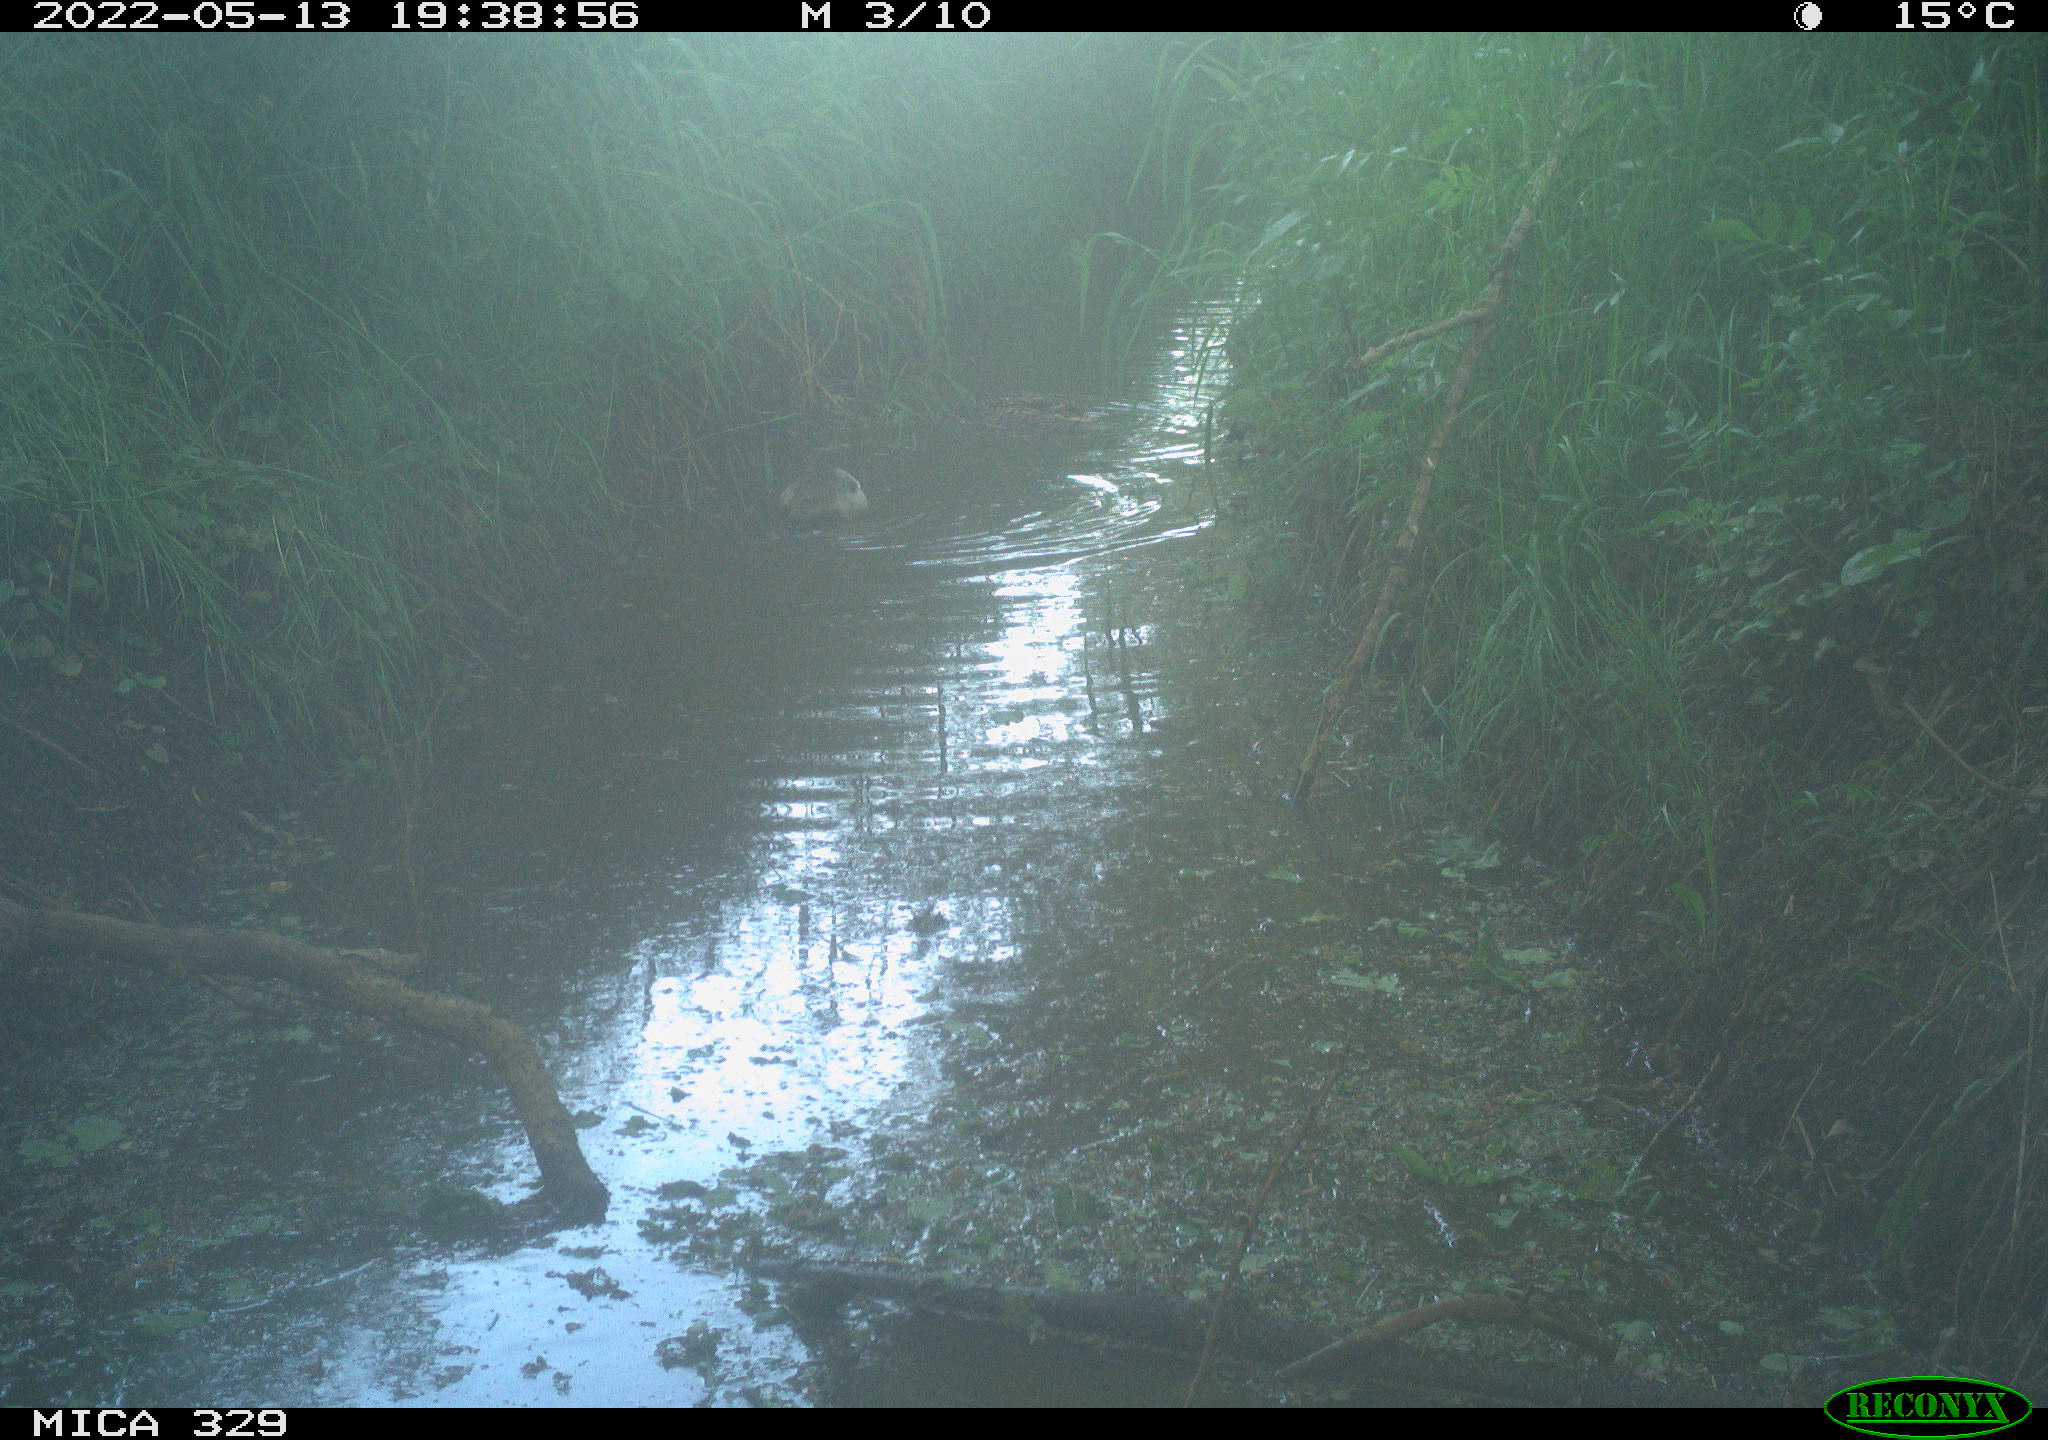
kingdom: Animalia
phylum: Chordata
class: Aves
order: Anseriformes
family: Anatidae
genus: Anas
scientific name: Anas platyrhynchos
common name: Mallard
